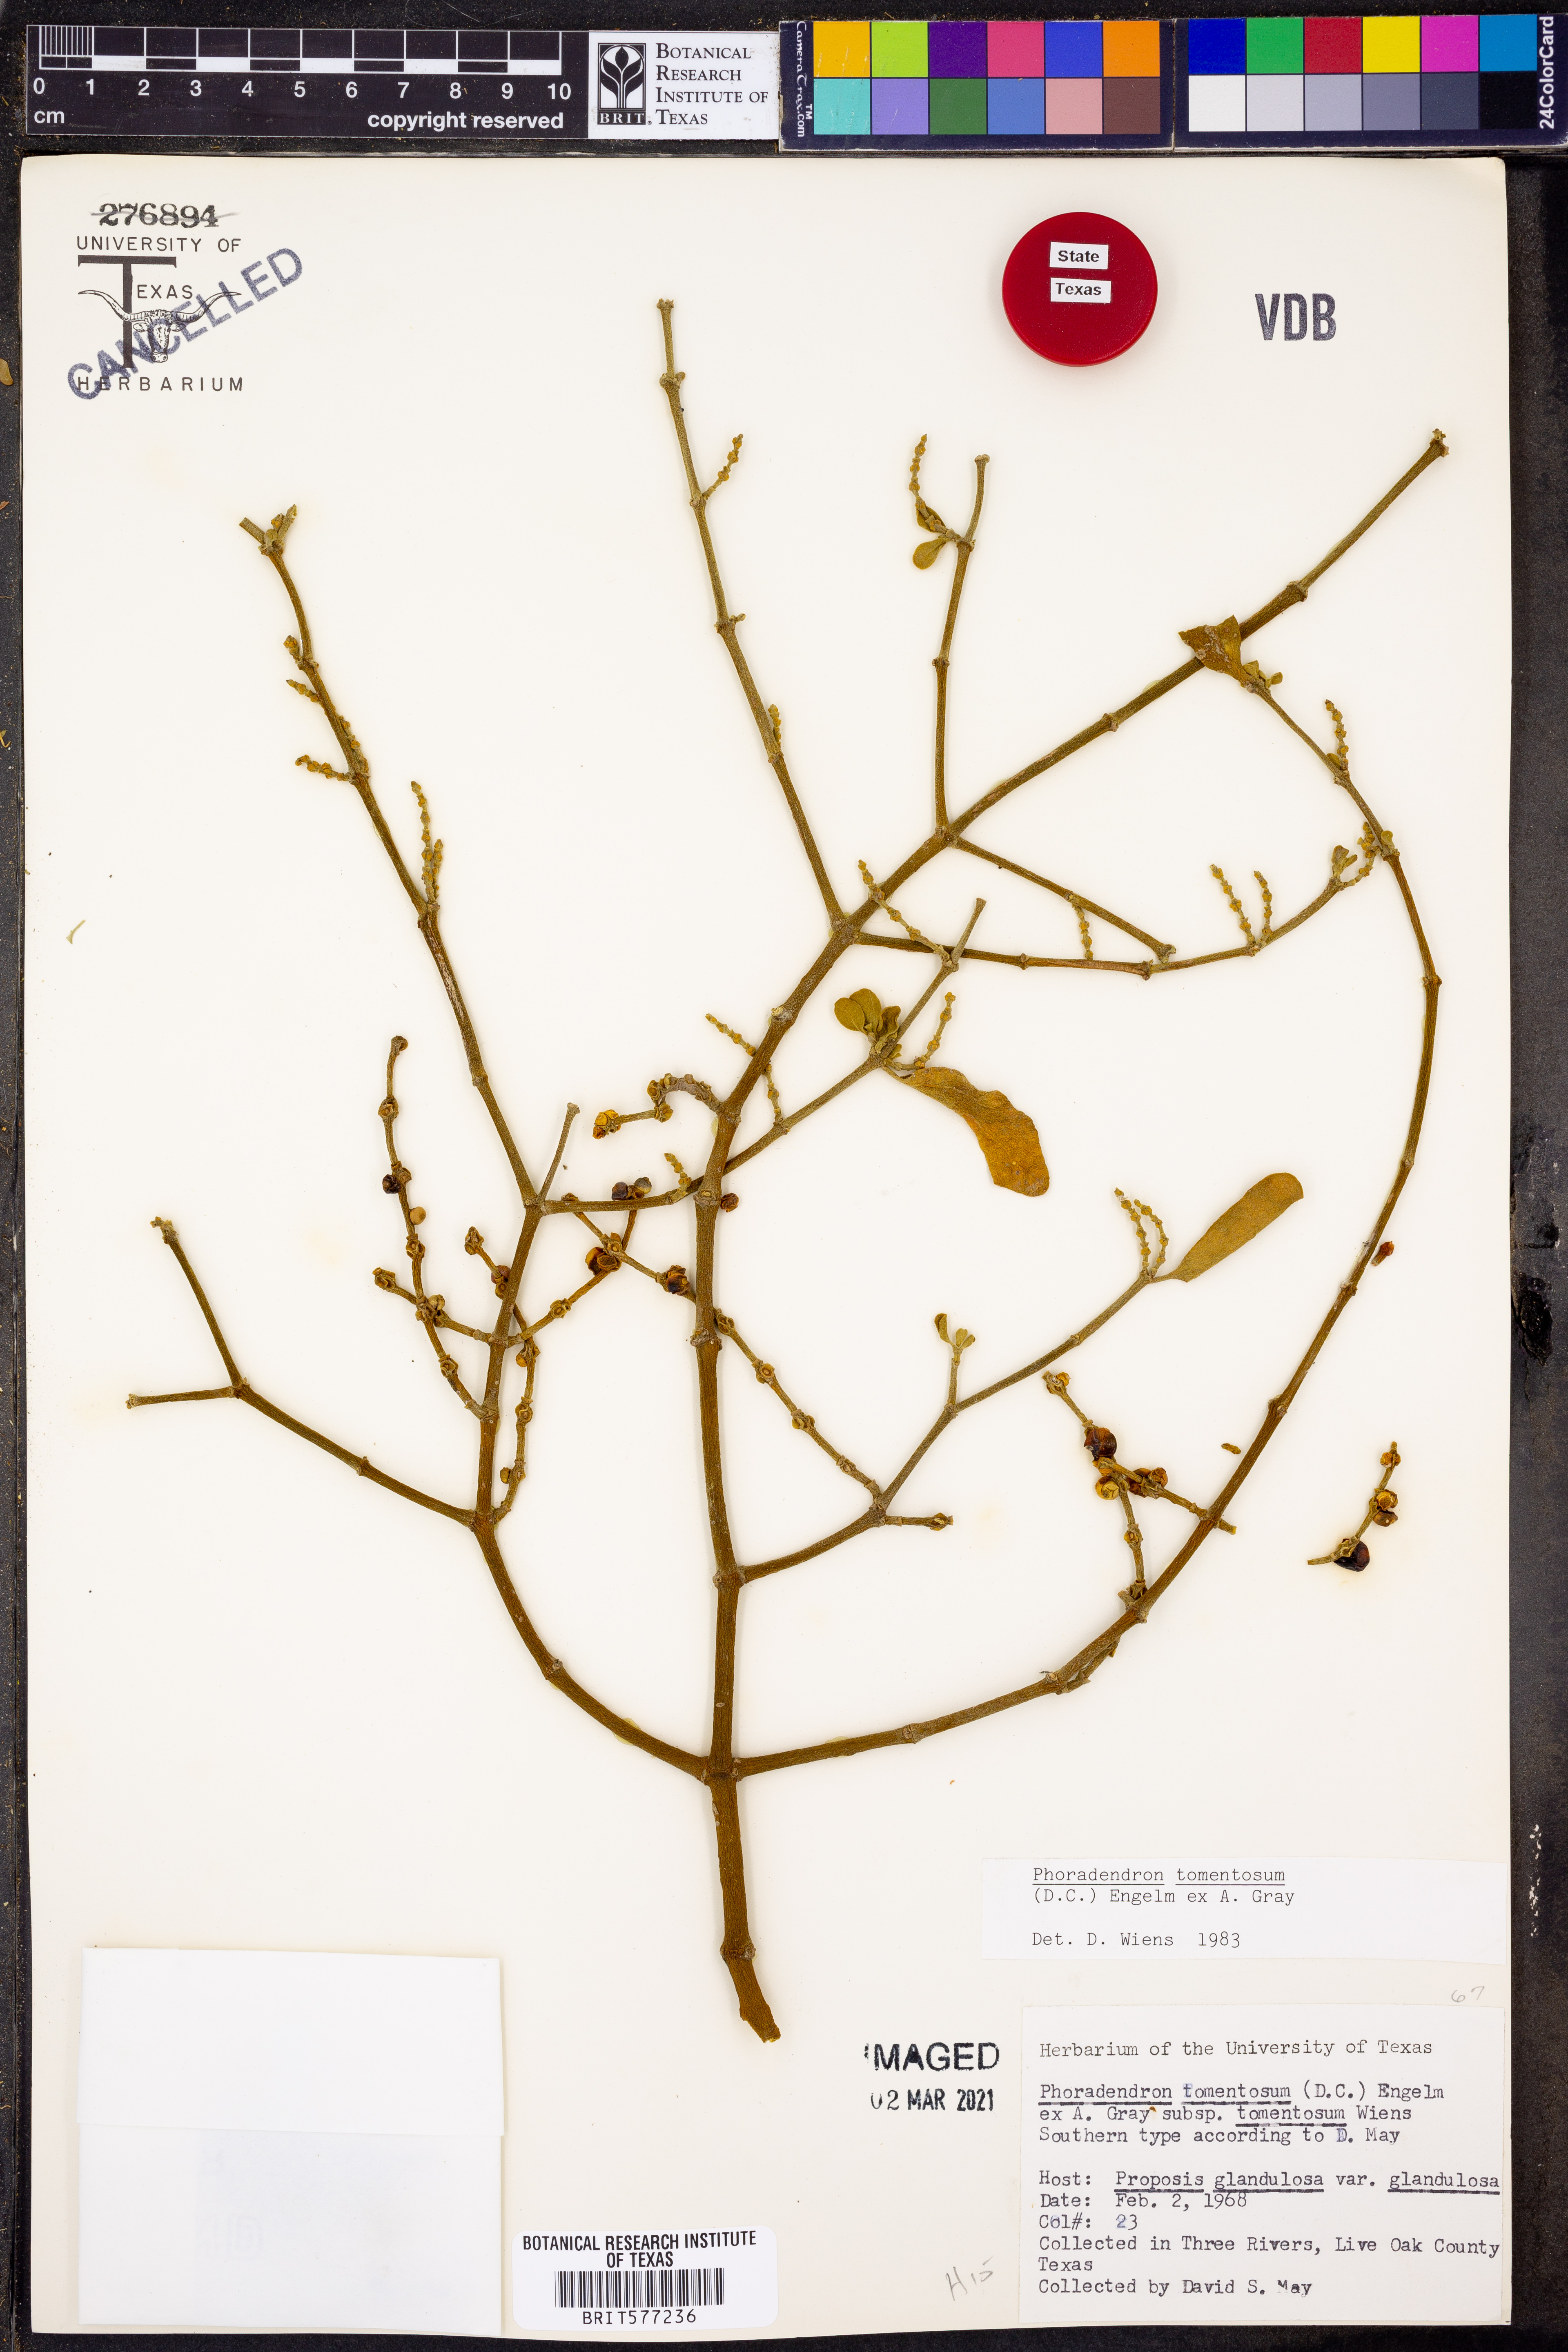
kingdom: Plantae
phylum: Tracheophyta
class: Magnoliopsida
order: Santalales
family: Viscaceae
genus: Phoradendron
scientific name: Phoradendron leucarpum
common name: Pacific mistletoe
